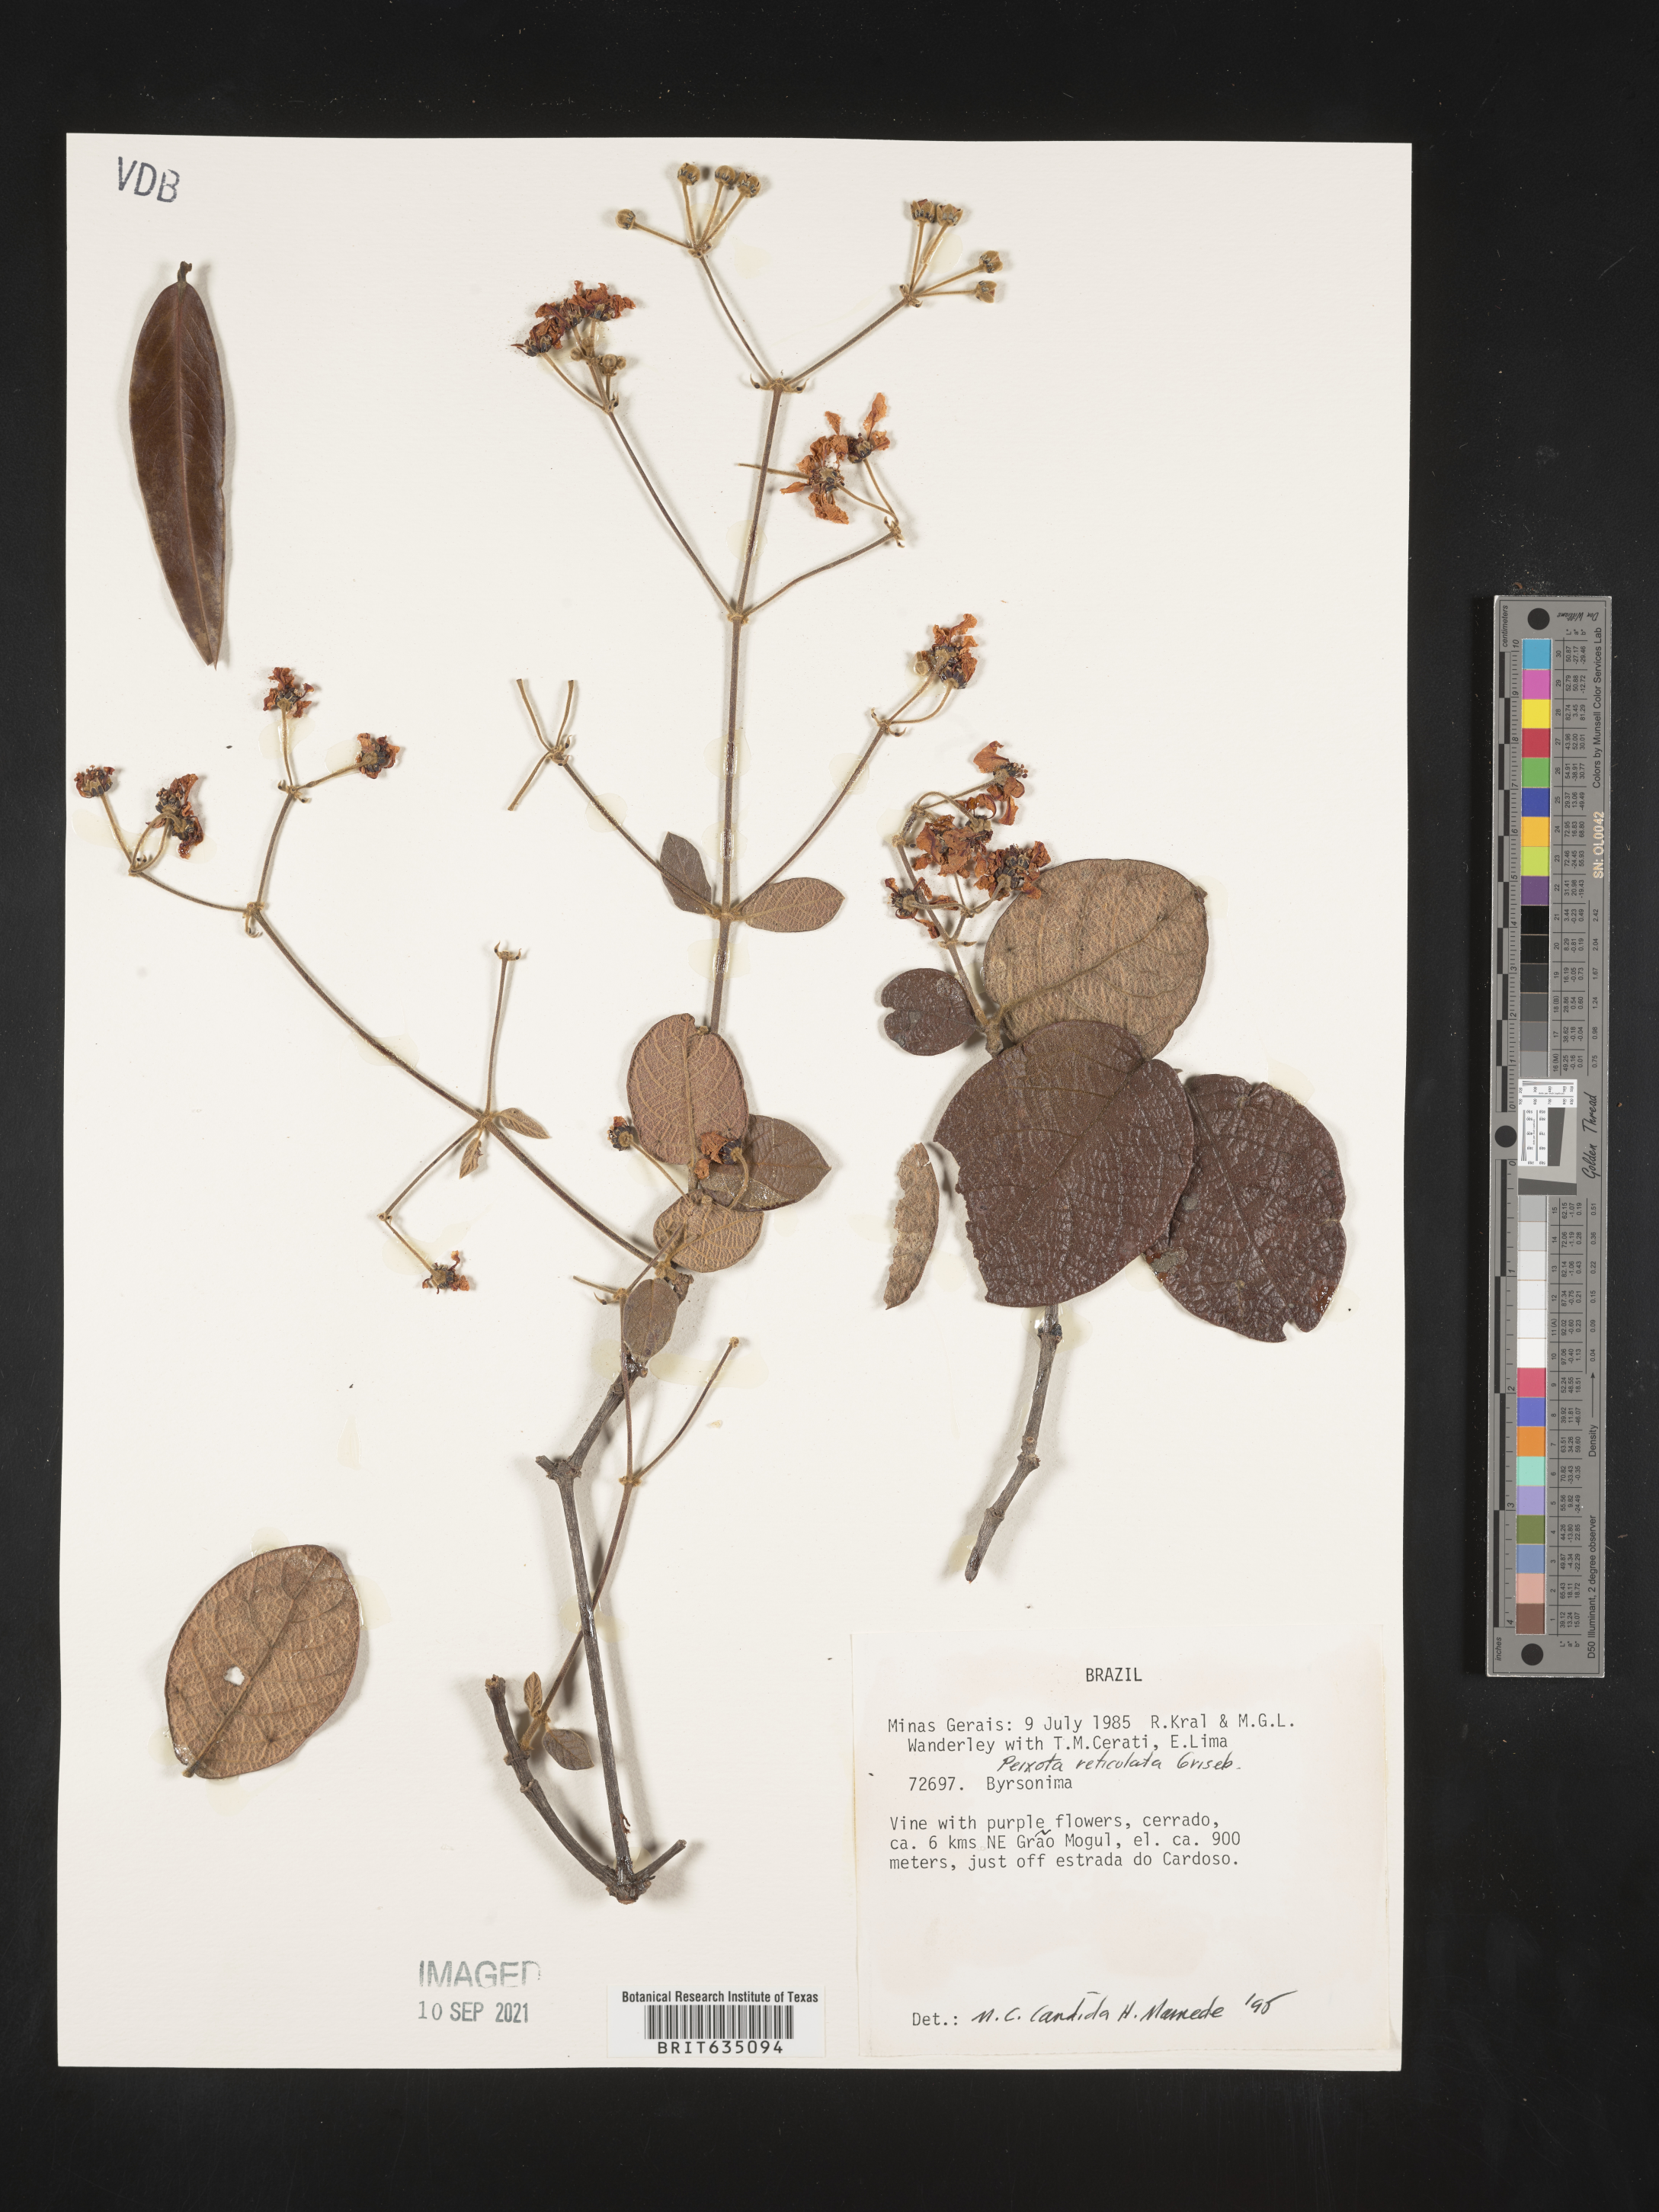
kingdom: Plantae
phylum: Tracheophyta
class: Magnoliopsida
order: Malpighiales
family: Malpighiaceae
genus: Peixotoa
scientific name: Peixotoa
